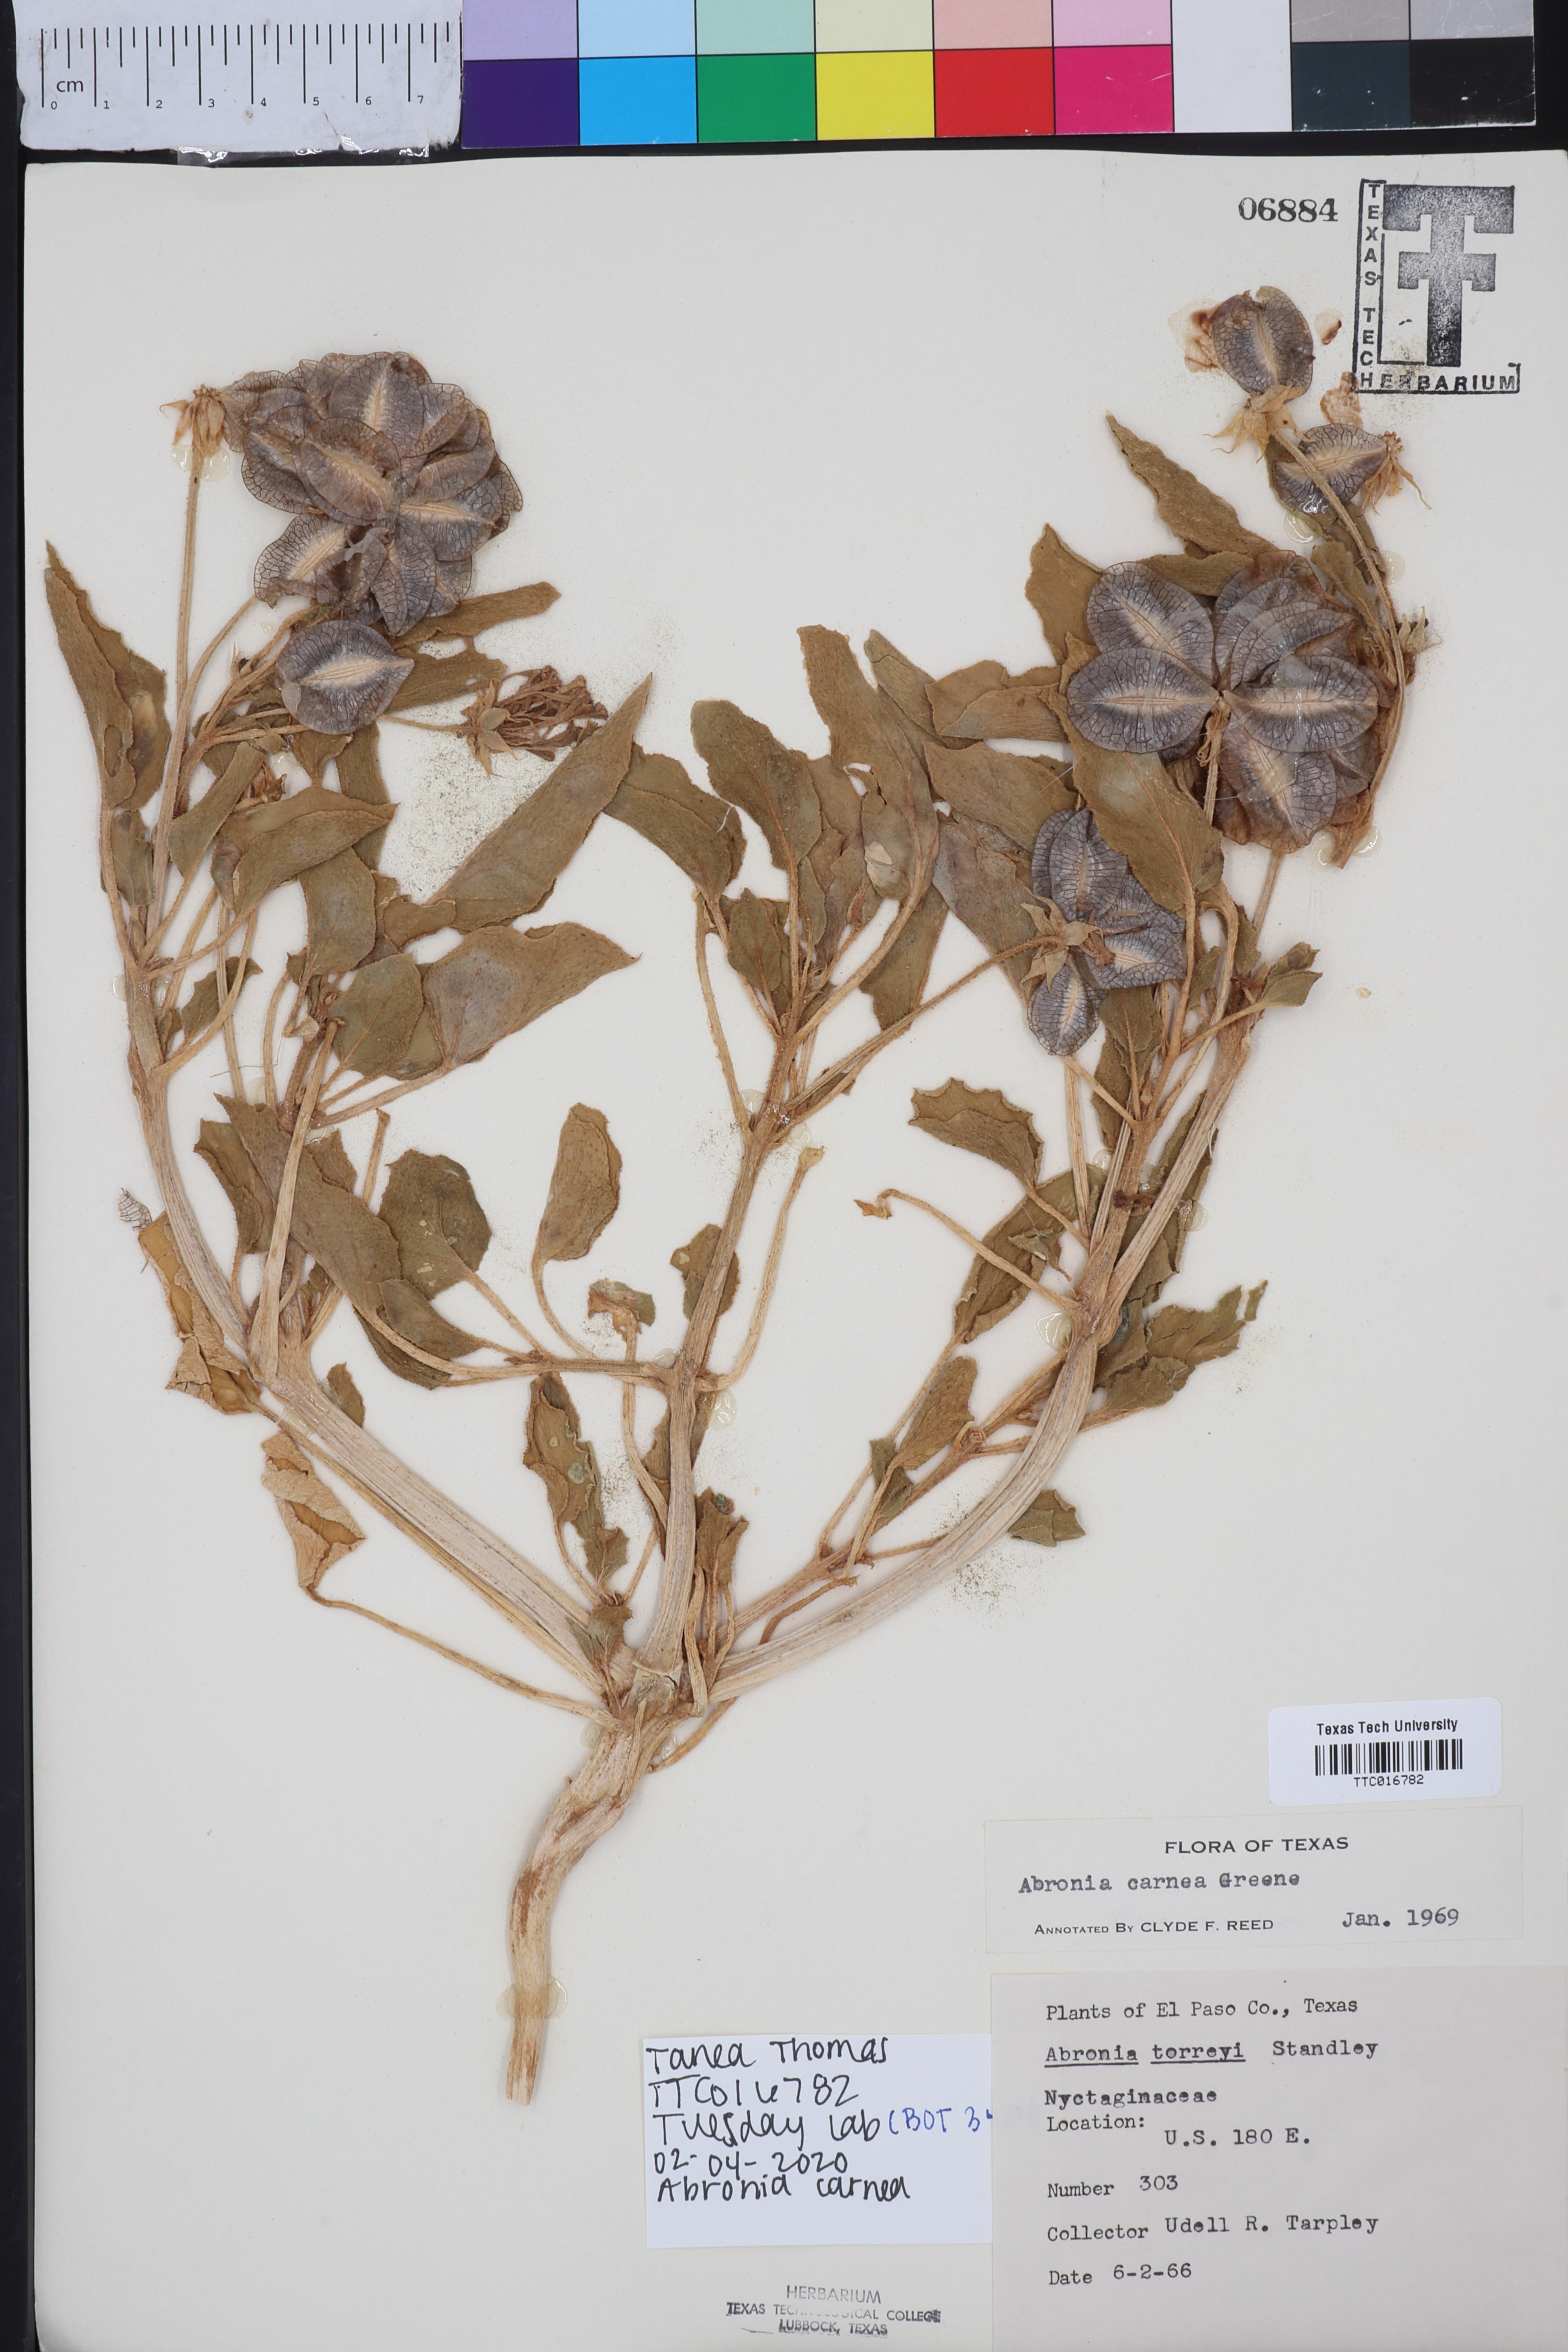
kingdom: Plantae
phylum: Tracheophyta
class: Magnoliopsida
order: Caryophyllales
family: Nyctaginaceae
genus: Tripterocalyx
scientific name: Tripterocalyx carneus
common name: Winged sandpuffs
